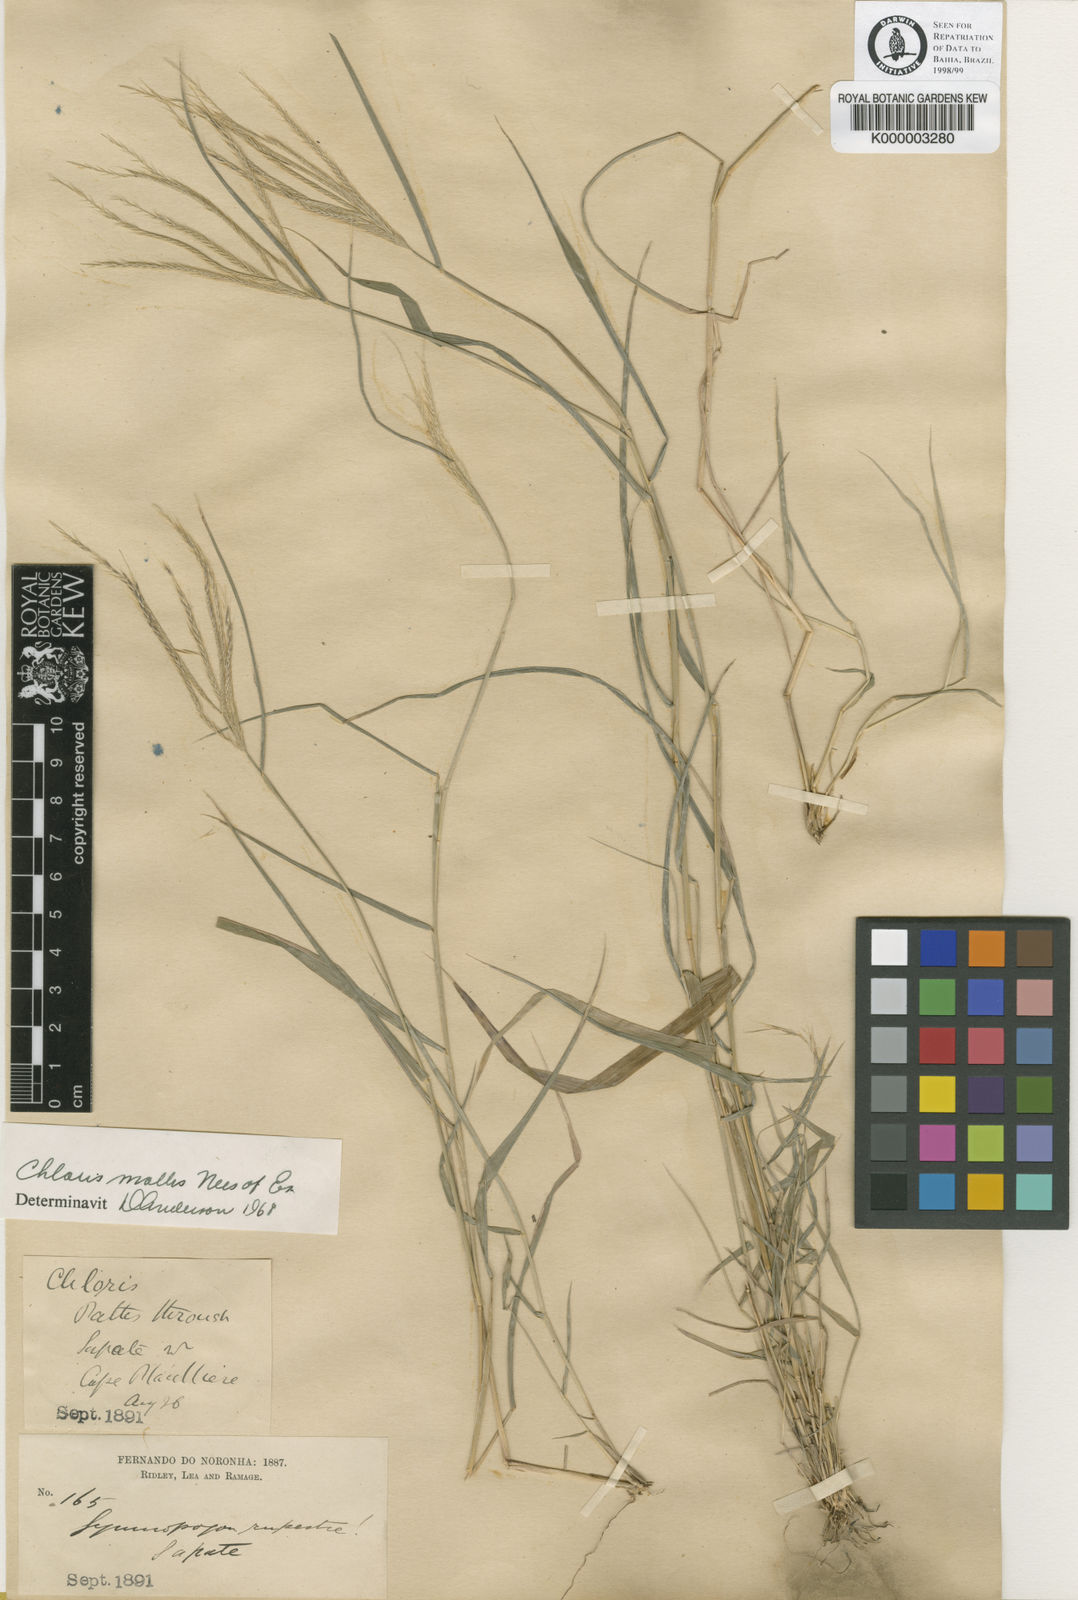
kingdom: Plantae
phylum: Tracheophyta
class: Liliopsida
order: Poales
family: Poaceae
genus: Leptochloa
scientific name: Leptochloa anisopoda
